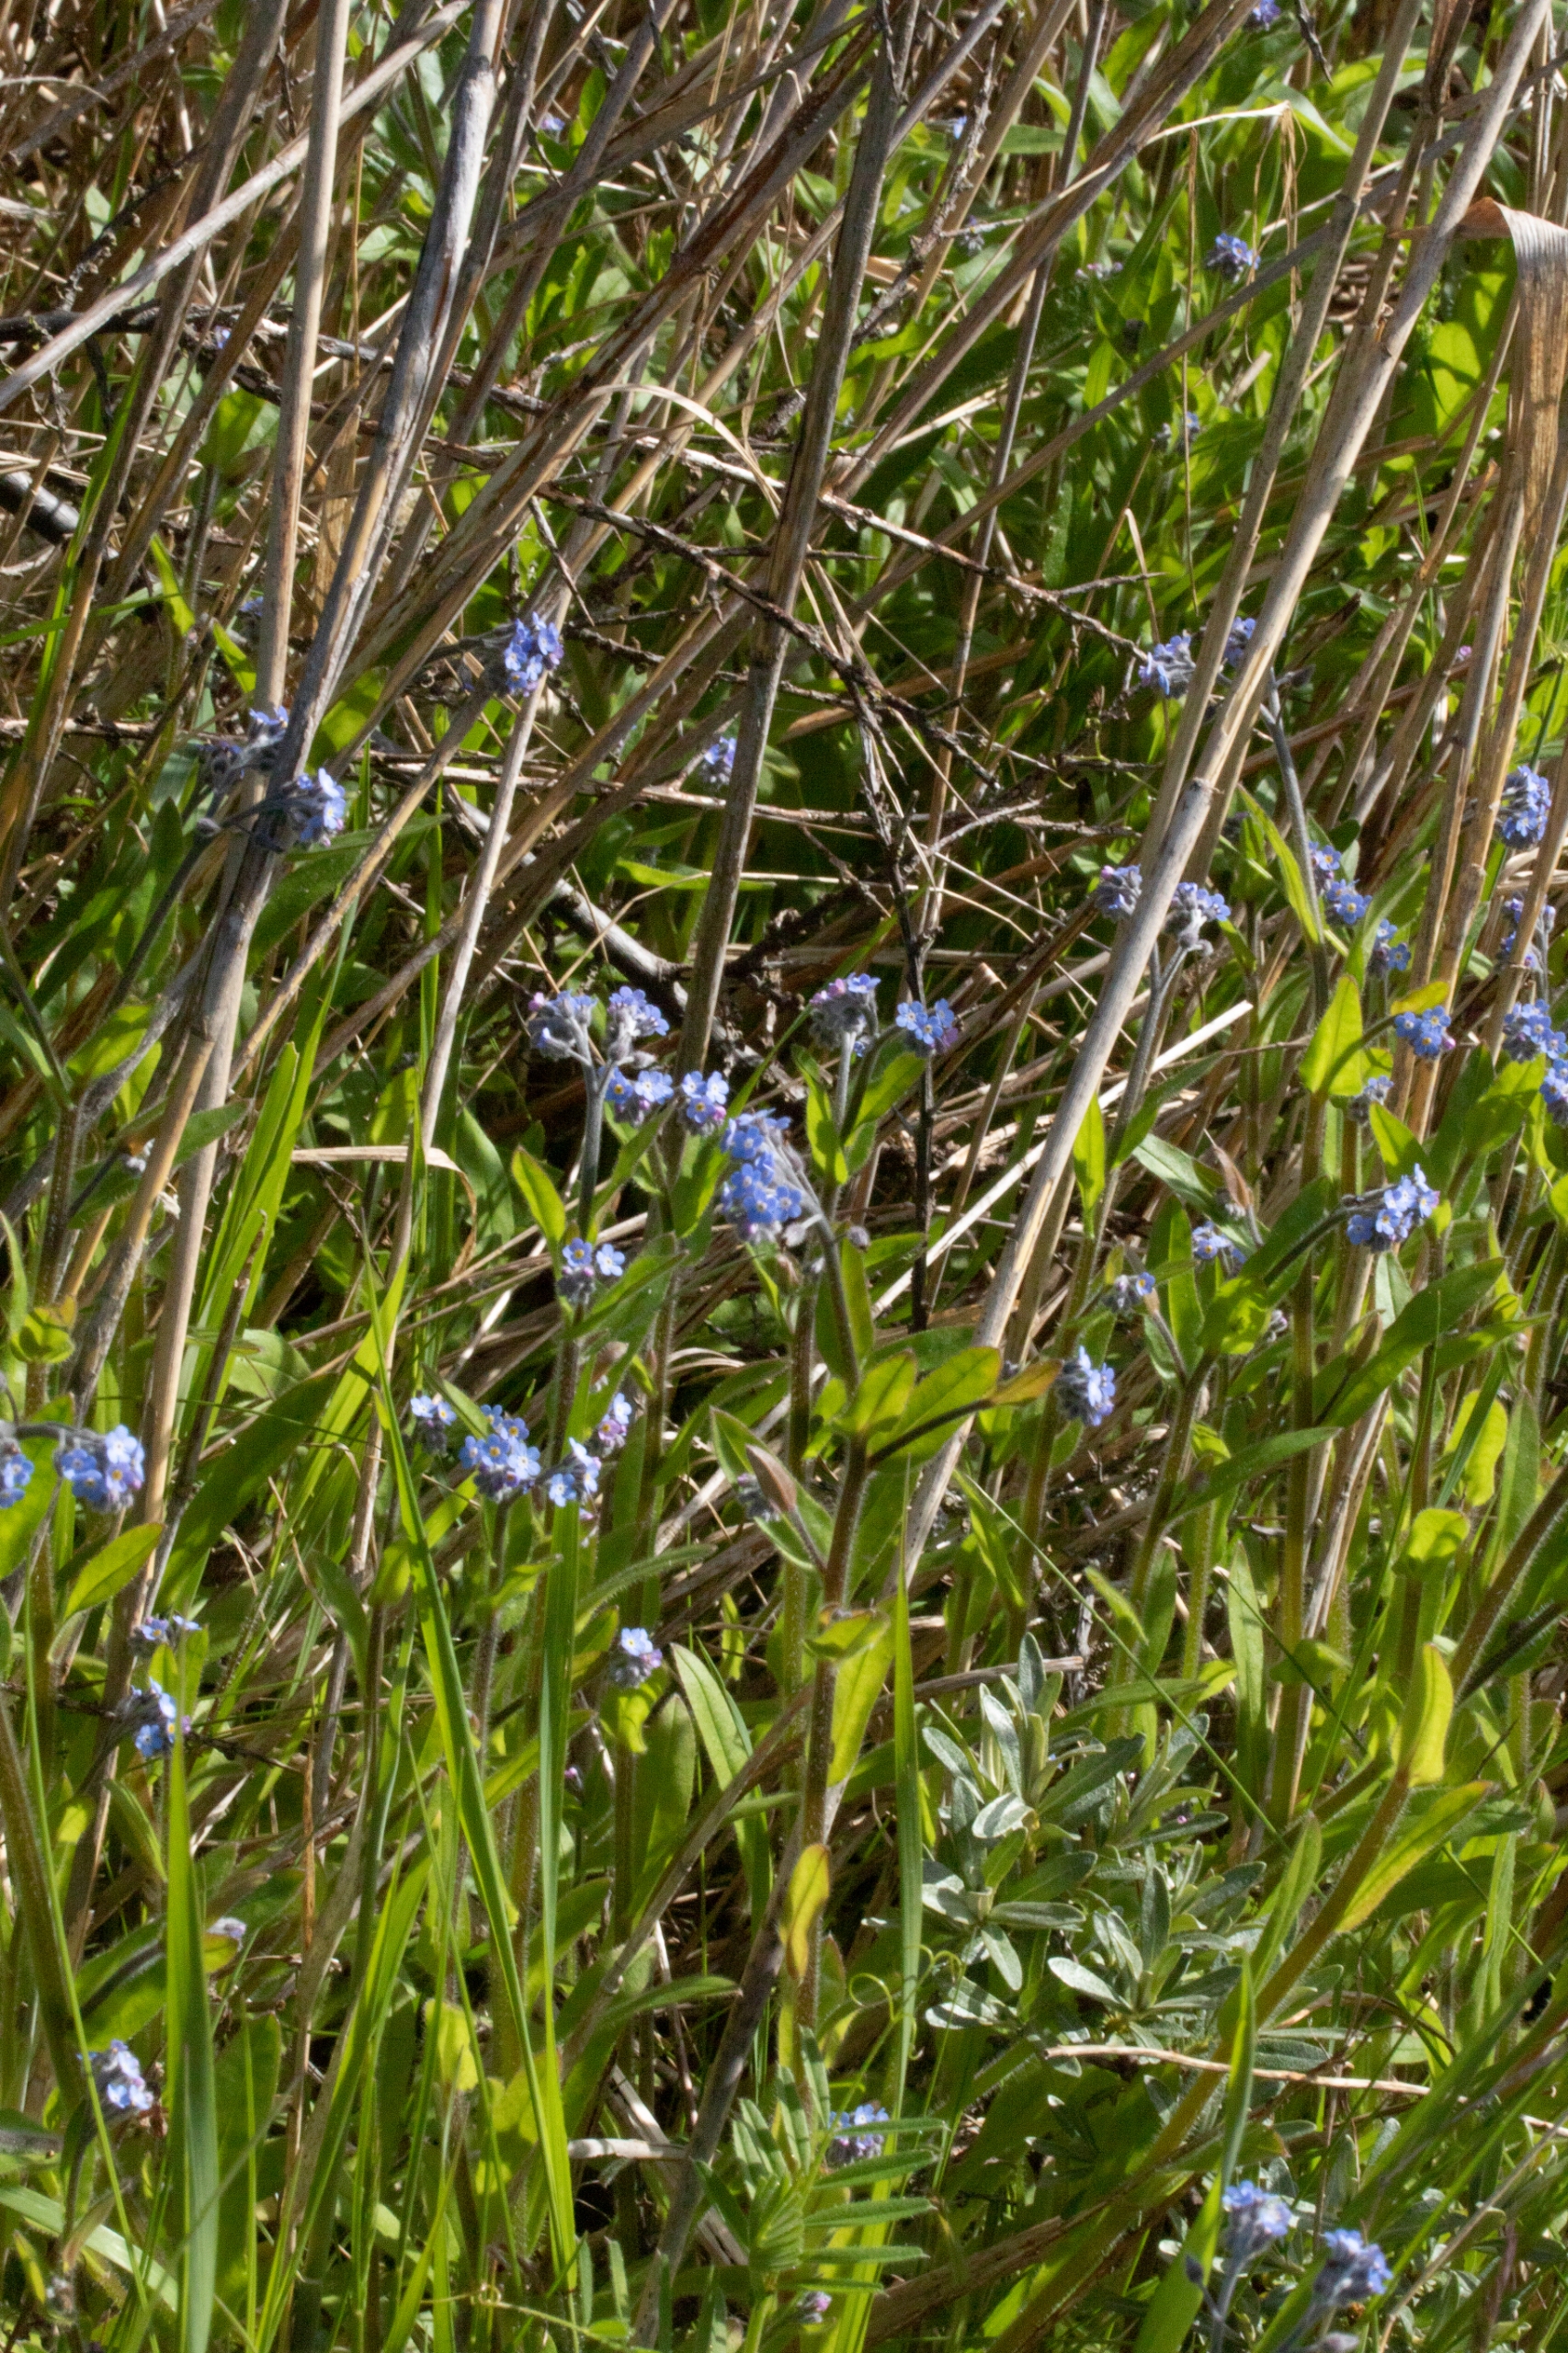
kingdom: Plantae
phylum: Tracheophyta
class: Magnoliopsida
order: Boraginales
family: Boraginaceae
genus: Myosotis
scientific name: Myosotis arvensis
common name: Mark-forglemmigej
